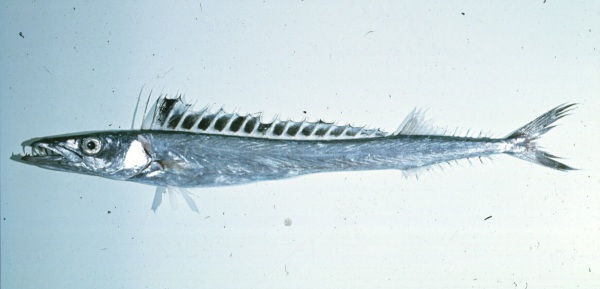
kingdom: Animalia
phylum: Chordata
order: Perciformes
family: Gempylidae
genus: Thyrsitoides
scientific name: Thyrsitoides marleyi
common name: Black snoek
